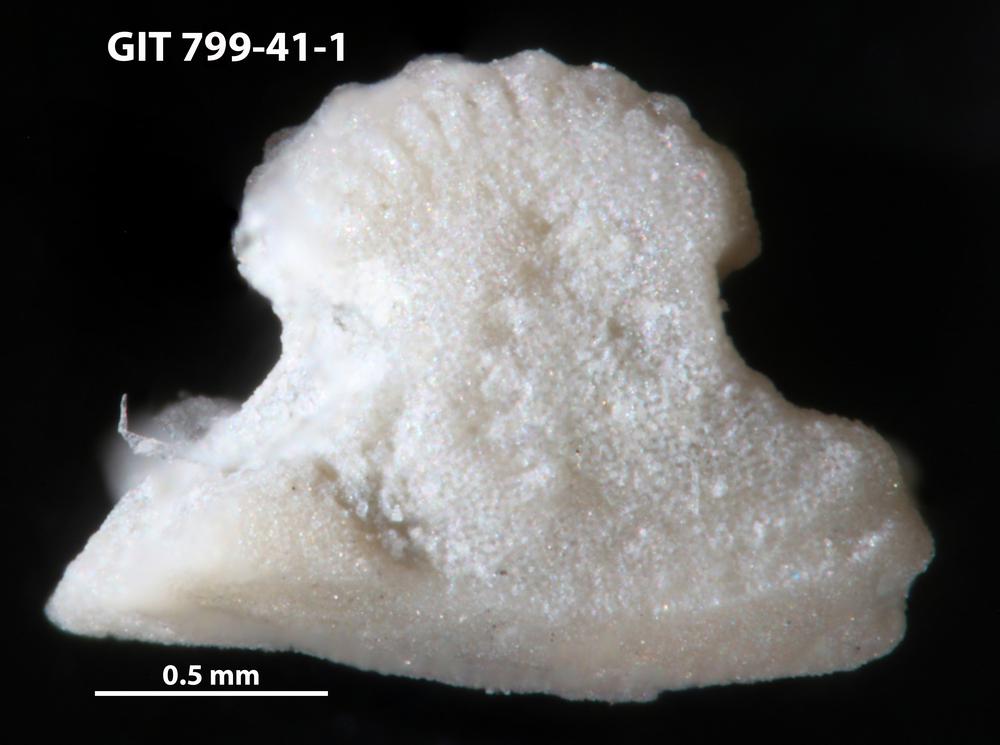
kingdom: Animalia
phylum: Echinodermata
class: Crinoidea
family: Cyclocystoididae
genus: Polytryphocycloides
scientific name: Polytryphocycloides Cyclocystoides lindstroemi
